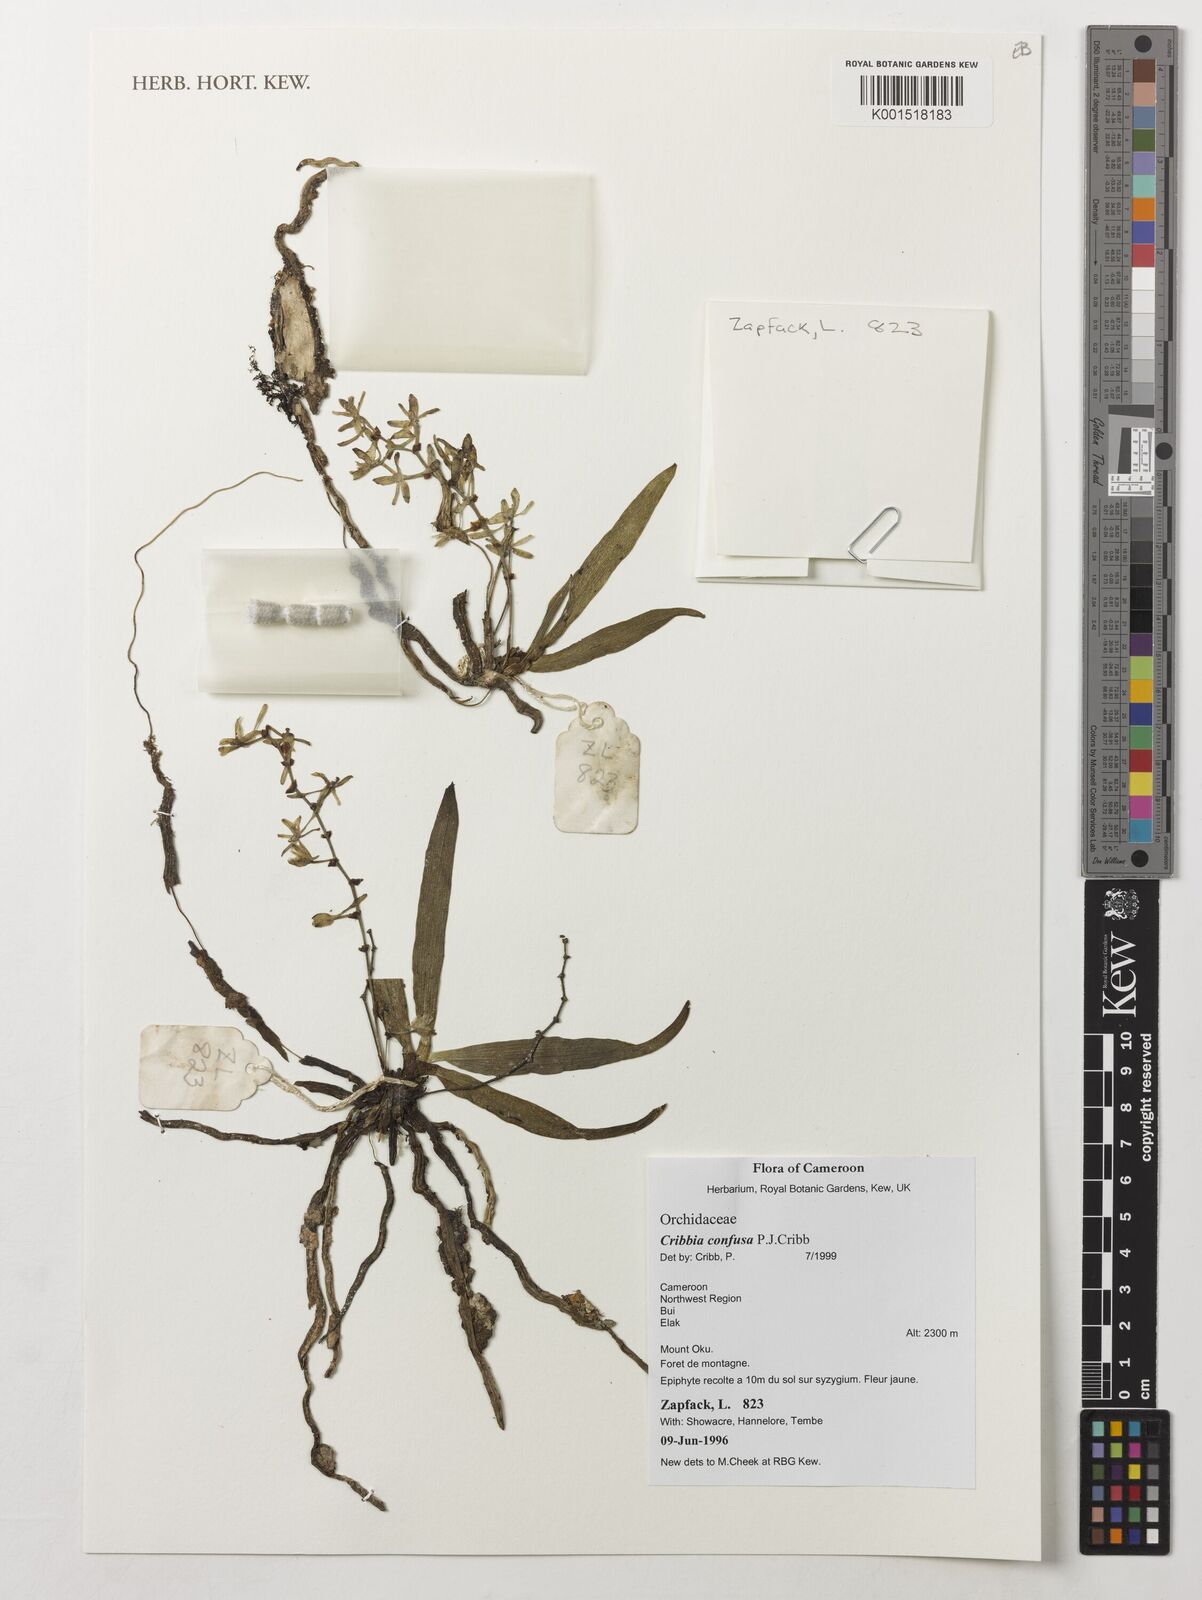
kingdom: Plantae
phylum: Tracheophyta
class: Liliopsida
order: Asparagales
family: Orchidaceae
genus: Rhipidoglossum
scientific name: Rhipidoglossum confusum
